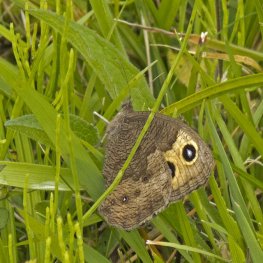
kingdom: Animalia
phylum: Arthropoda
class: Insecta
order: Lepidoptera
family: Nymphalidae
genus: Cercyonis
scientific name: Cercyonis pegala
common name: Common Wood-Nymph
